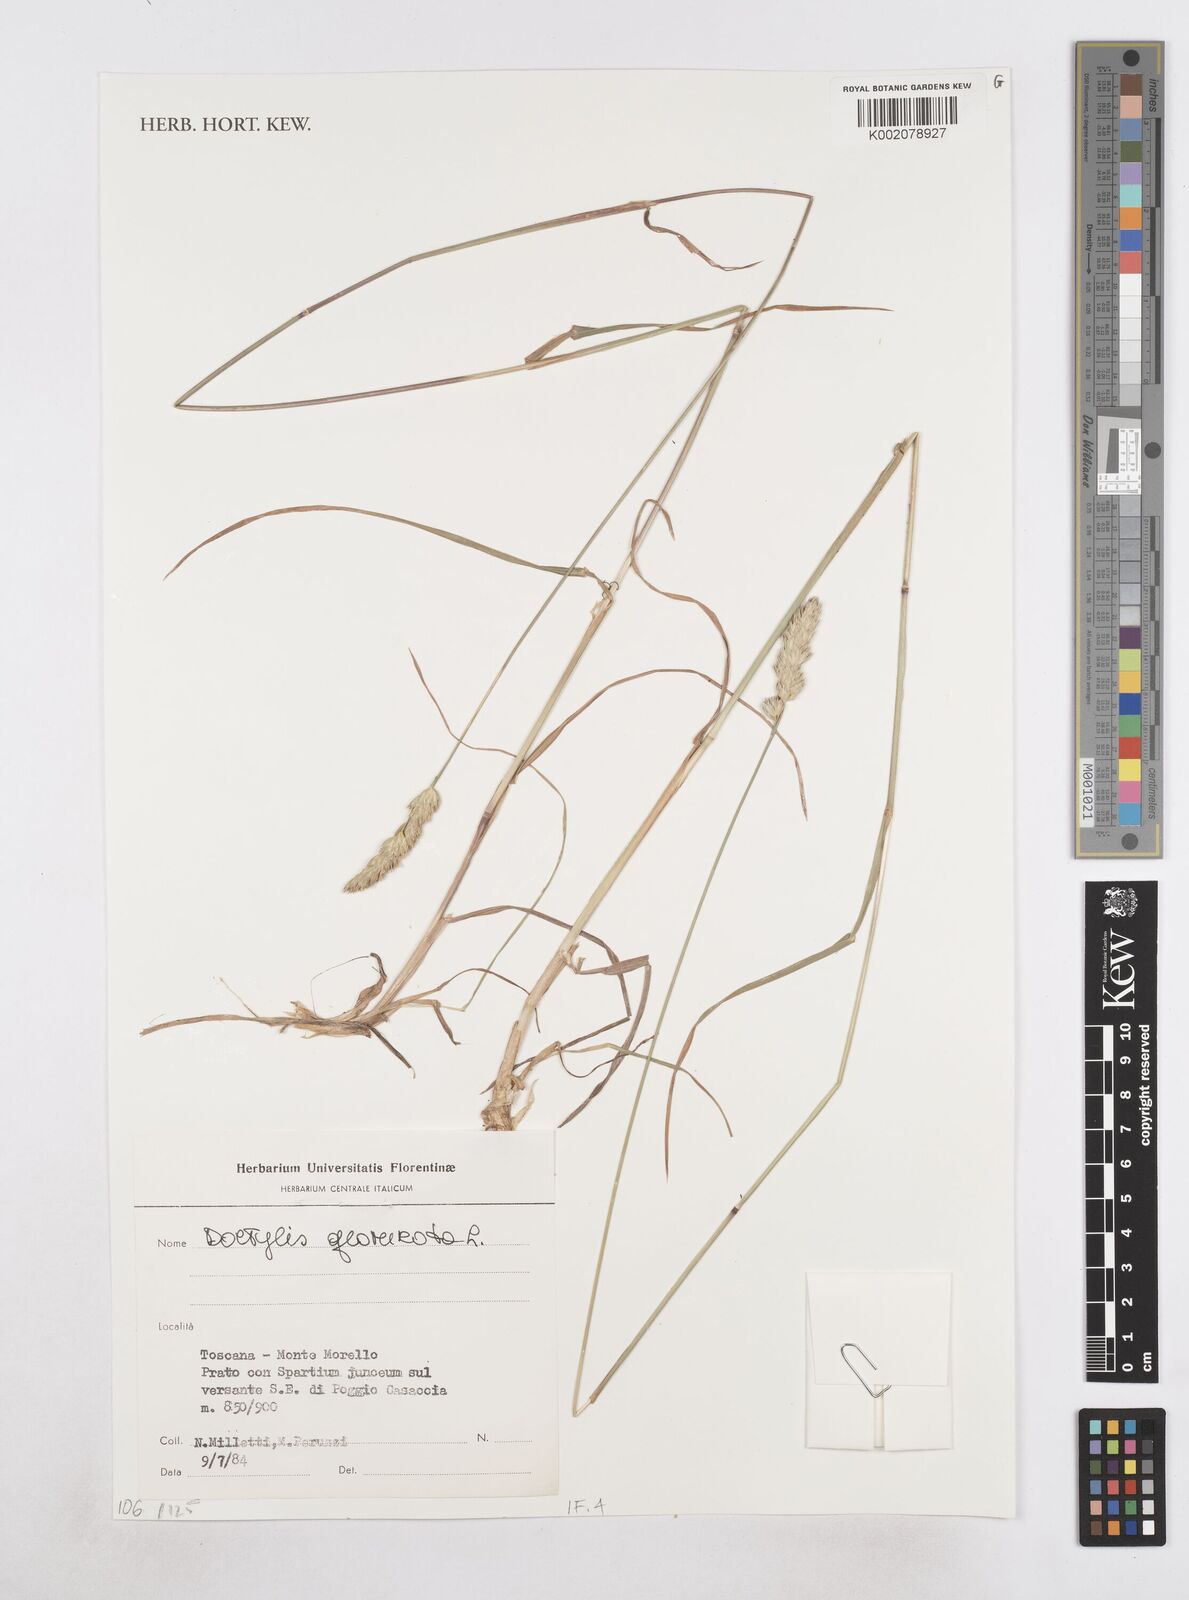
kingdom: Plantae
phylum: Tracheophyta
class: Liliopsida
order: Poales
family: Poaceae
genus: Dactylis
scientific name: Dactylis glomerata
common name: Orchardgrass
